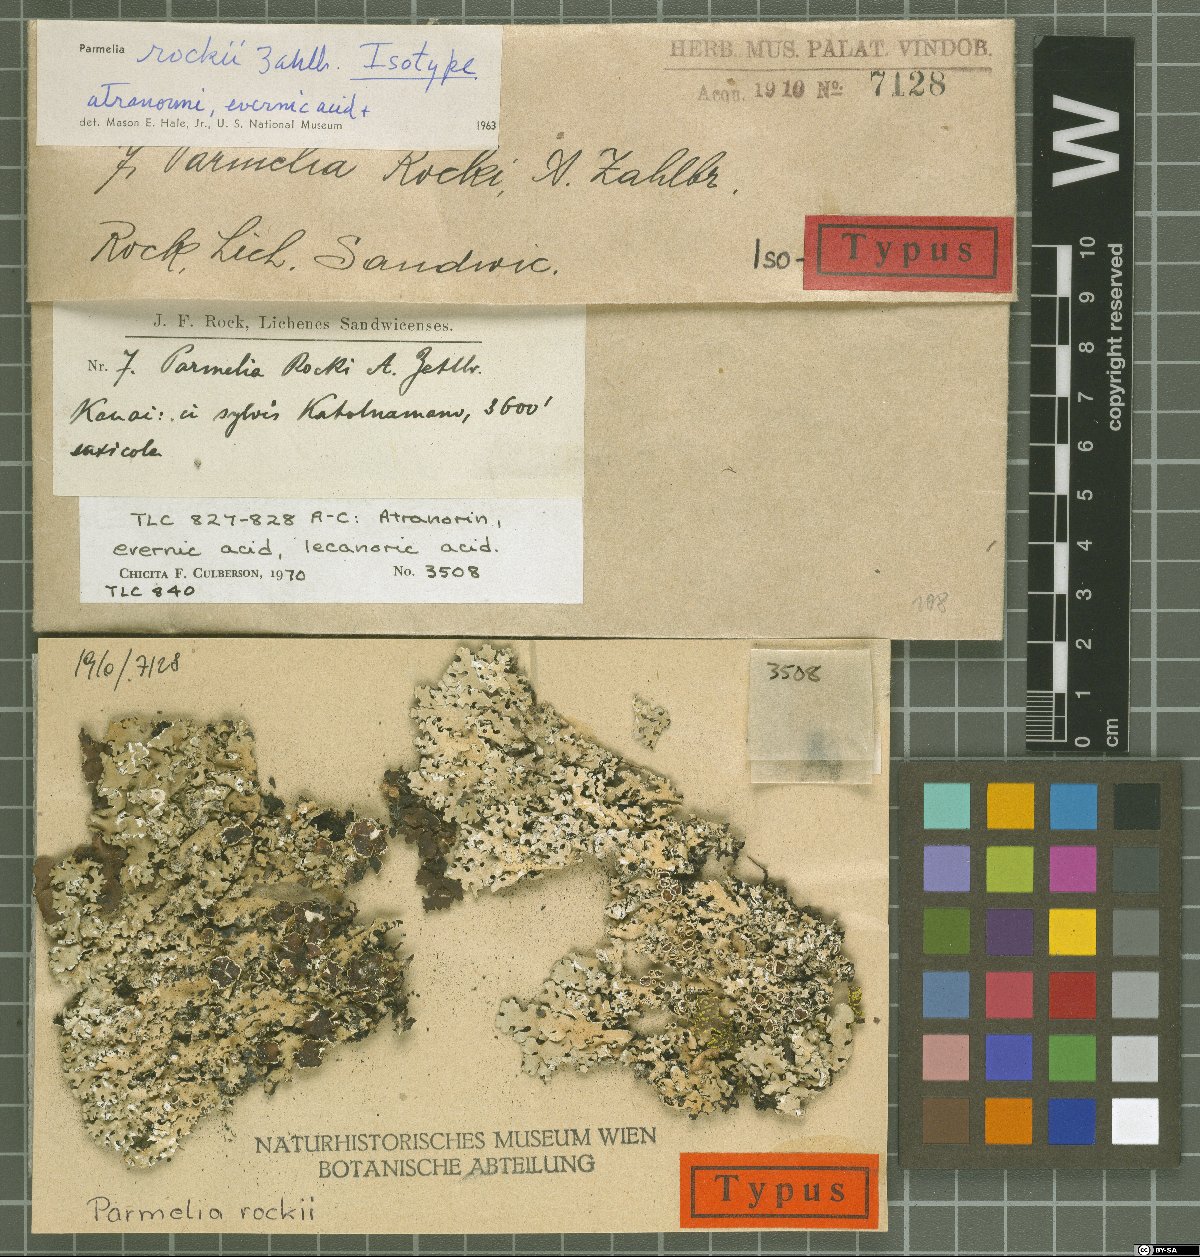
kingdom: Fungi
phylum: Ascomycota
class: Lecanoromycetes
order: Lecanorales
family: Parmeliaceae
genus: Hypotrachyna
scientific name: Hypotrachyna rockii
